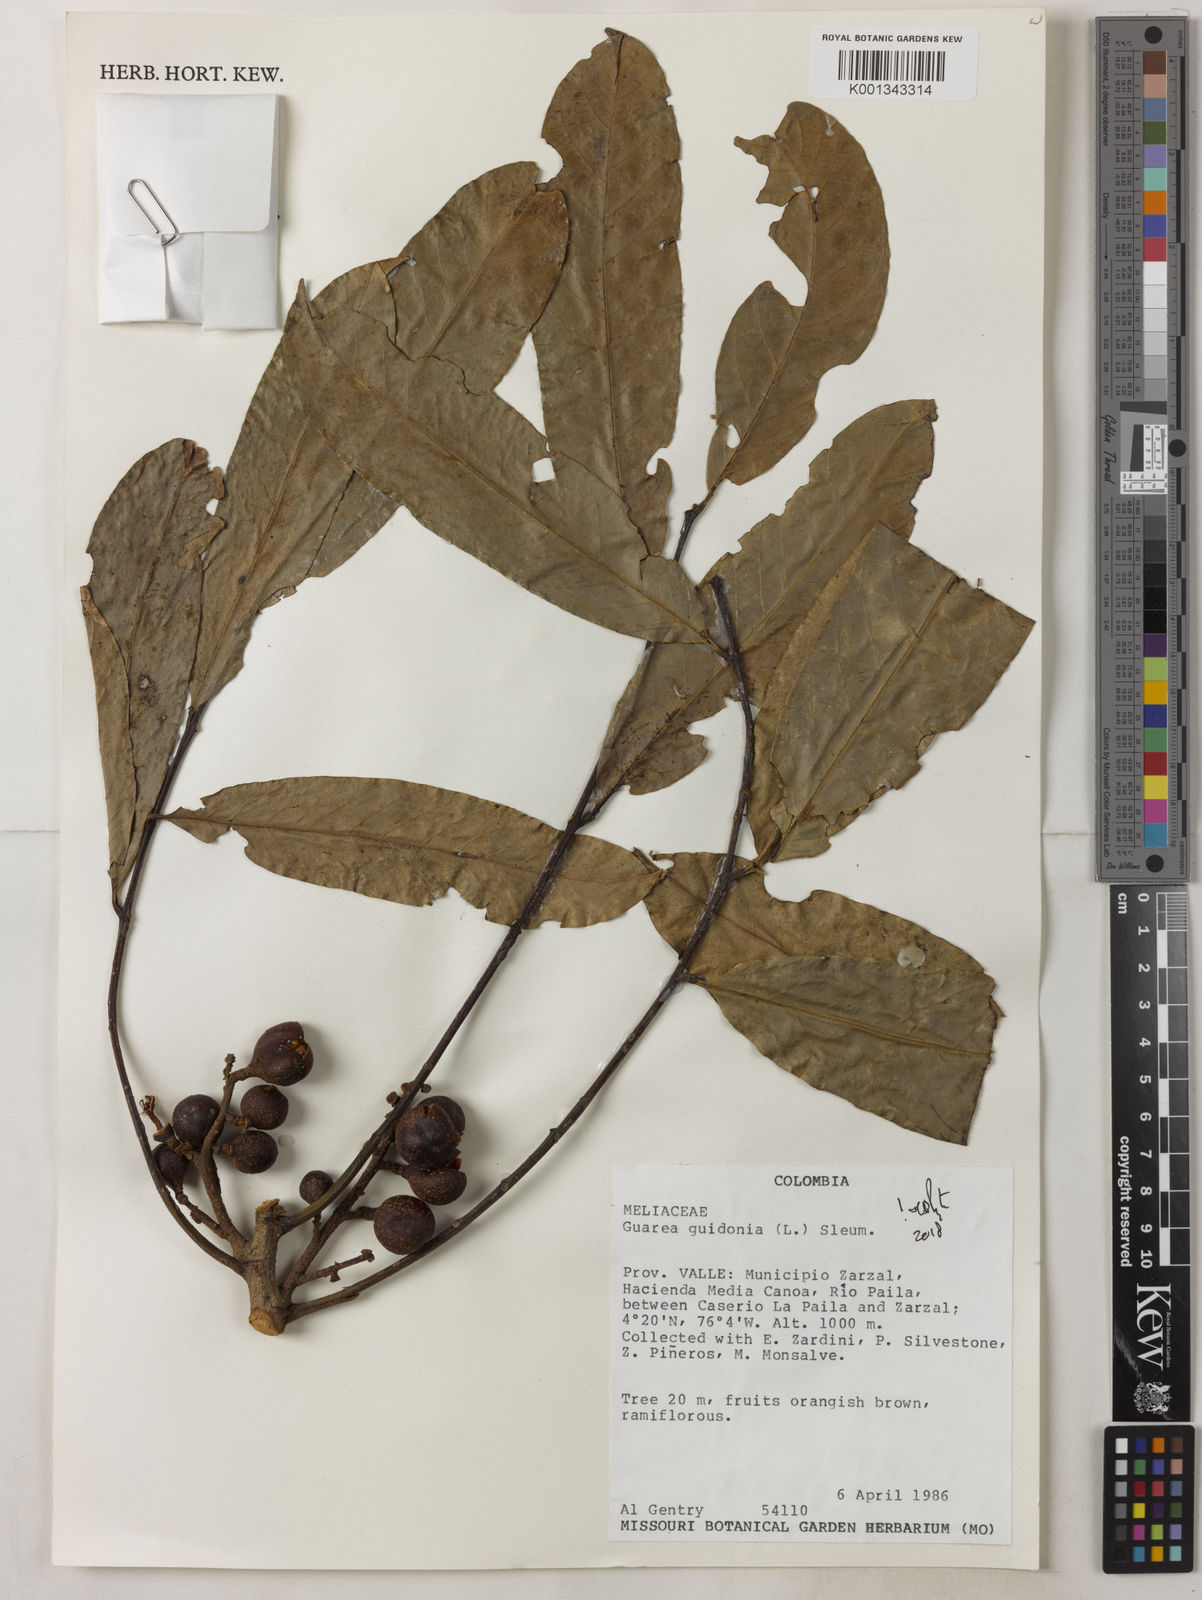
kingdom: Plantae
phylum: Tracheophyta
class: Magnoliopsida
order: Sapindales
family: Meliaceae
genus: Guarea
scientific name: Guarea guidonia
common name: American muskwood
